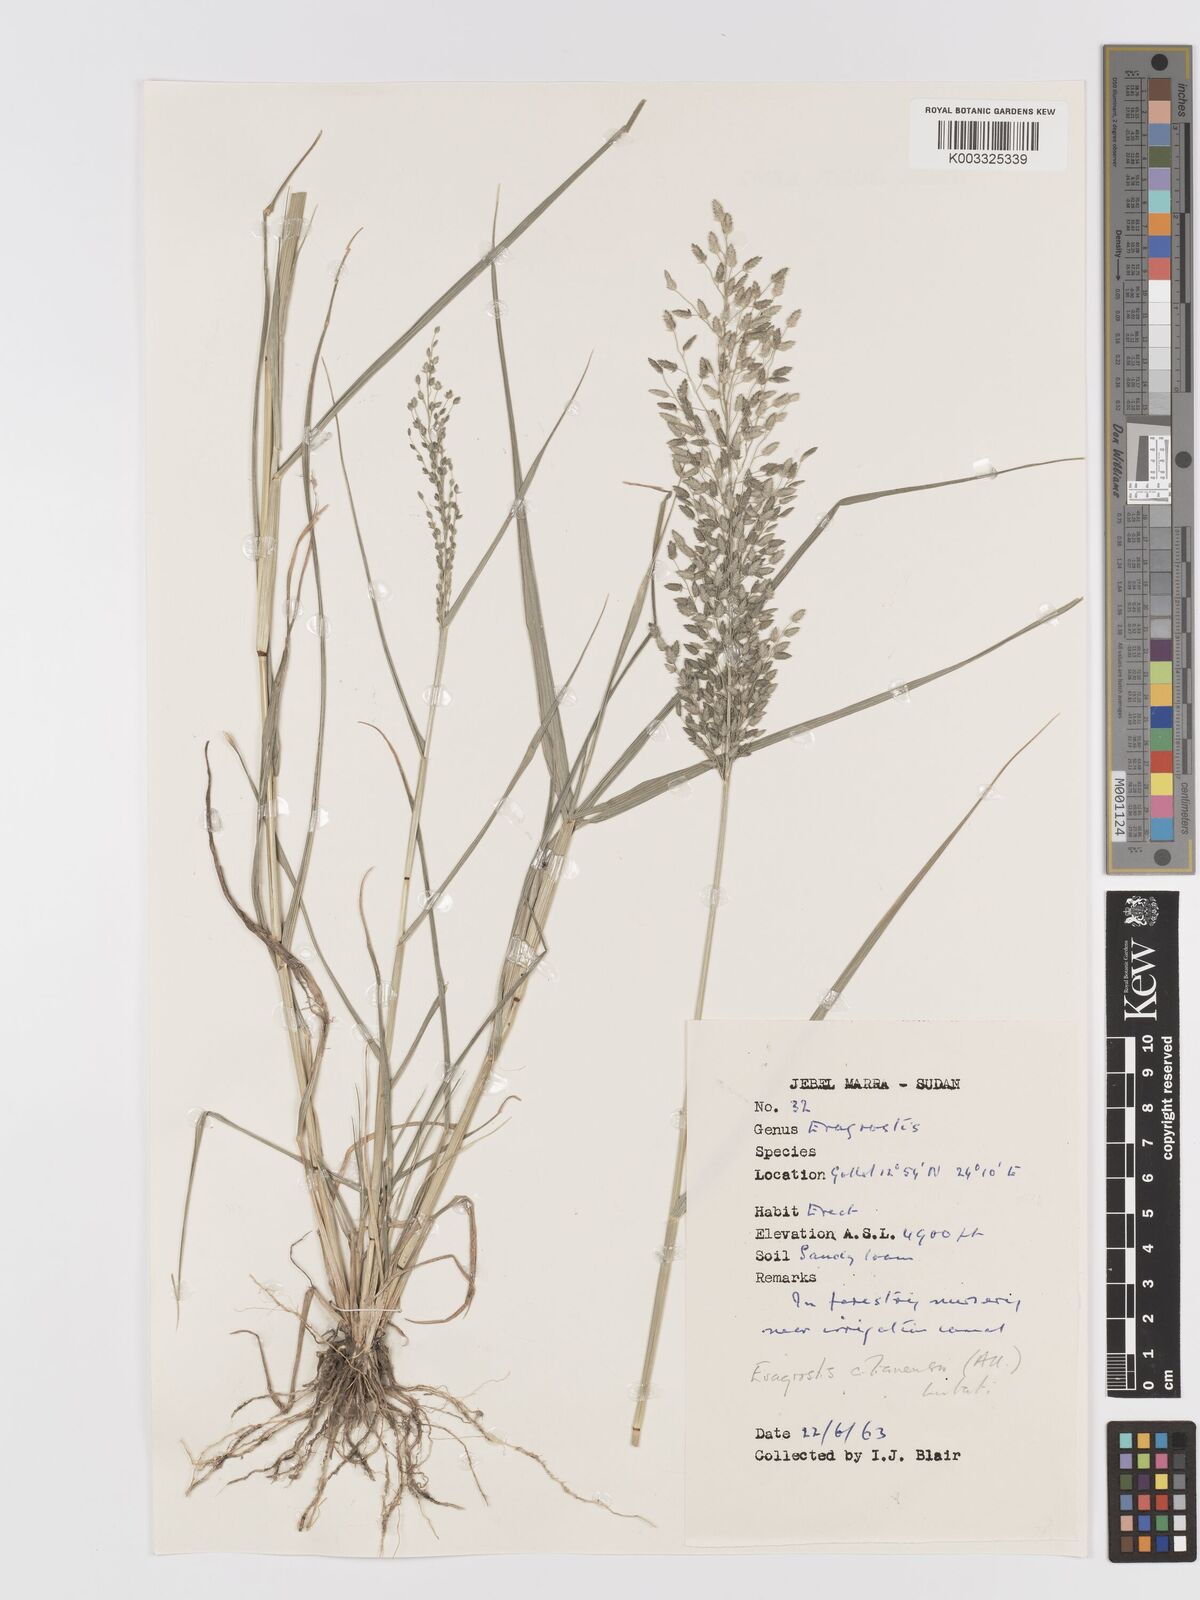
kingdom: Plantae
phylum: Tracheophyta
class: Liliopsida
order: Poales
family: Poaceae
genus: Eragrostis
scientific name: Eragrostis cilianensis
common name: Stinkgrass
